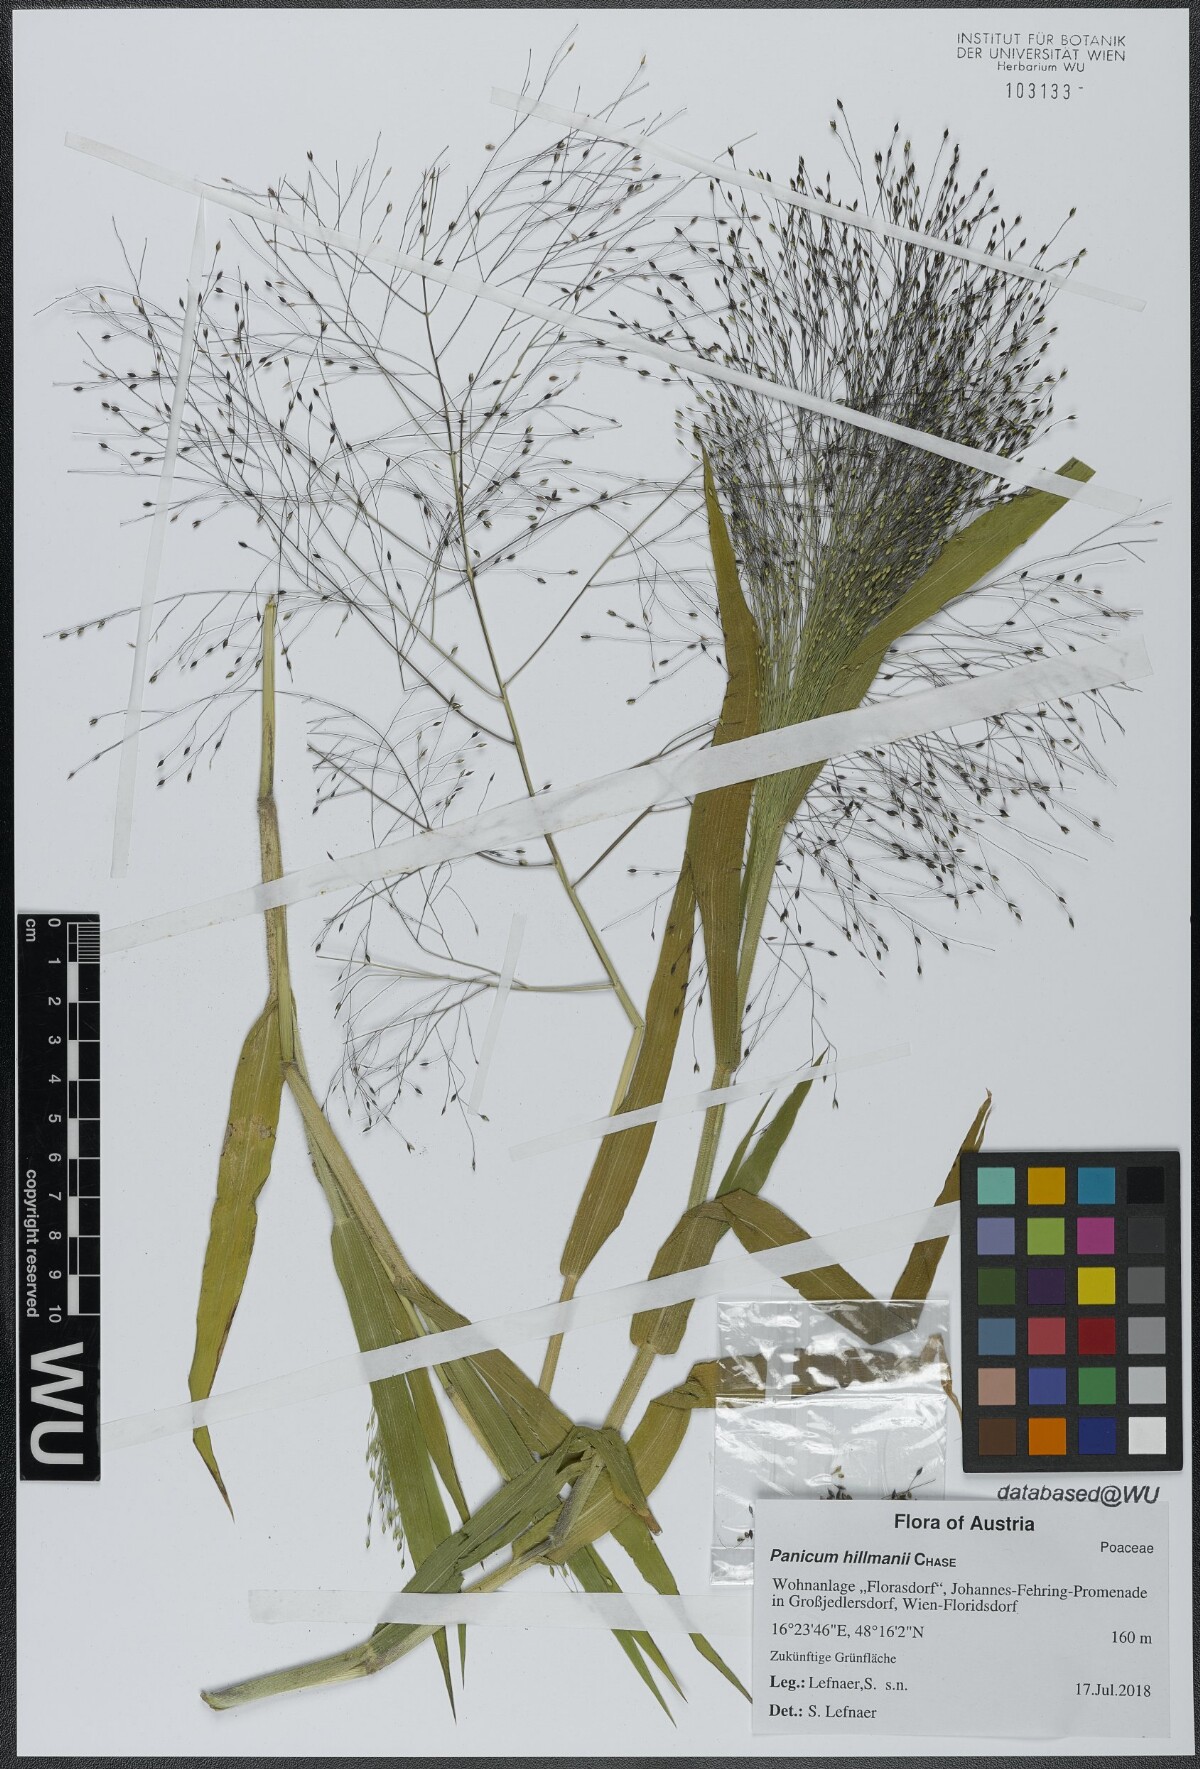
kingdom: Plantae
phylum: Tracheophyta
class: Liliopsida
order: Poales
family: Poaceae
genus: Panicum
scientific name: Panicum hillmanii
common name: Hillman's panicum
